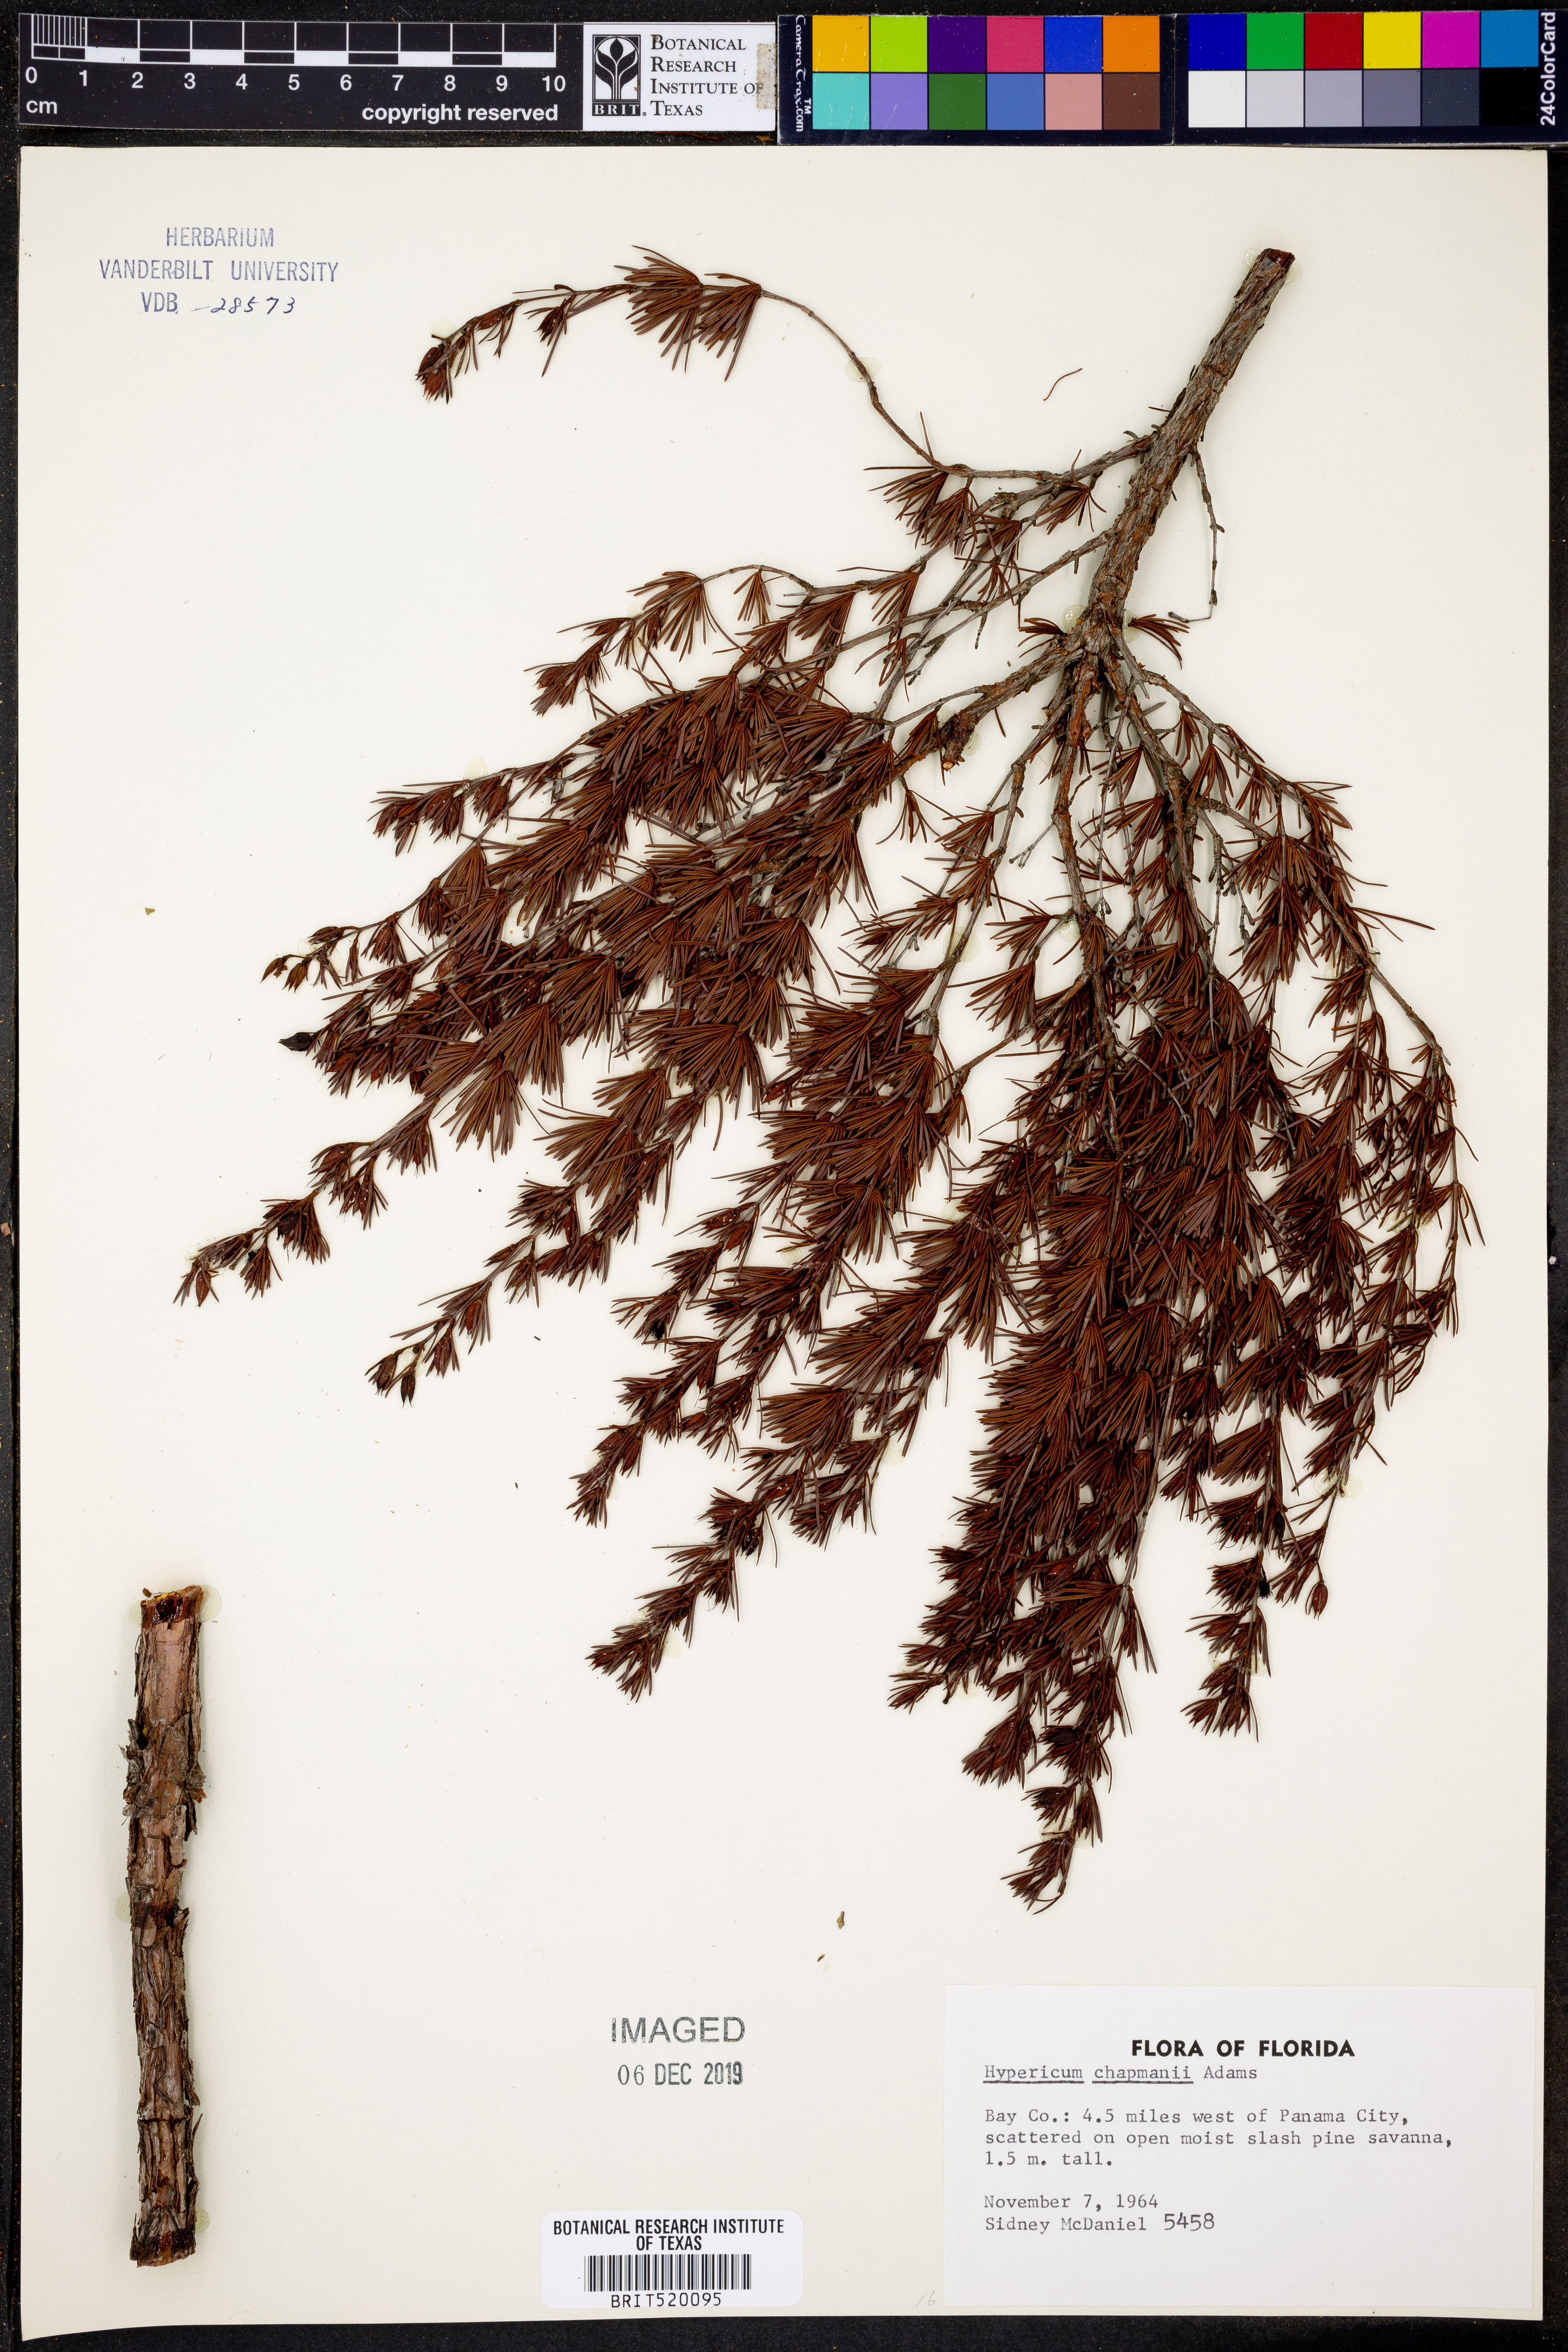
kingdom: Plantae
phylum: Tracheophyta
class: Magnoliopsida
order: Malpighiales
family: Hypericaceae
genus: Hypericum
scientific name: Hypericum chapmanii
